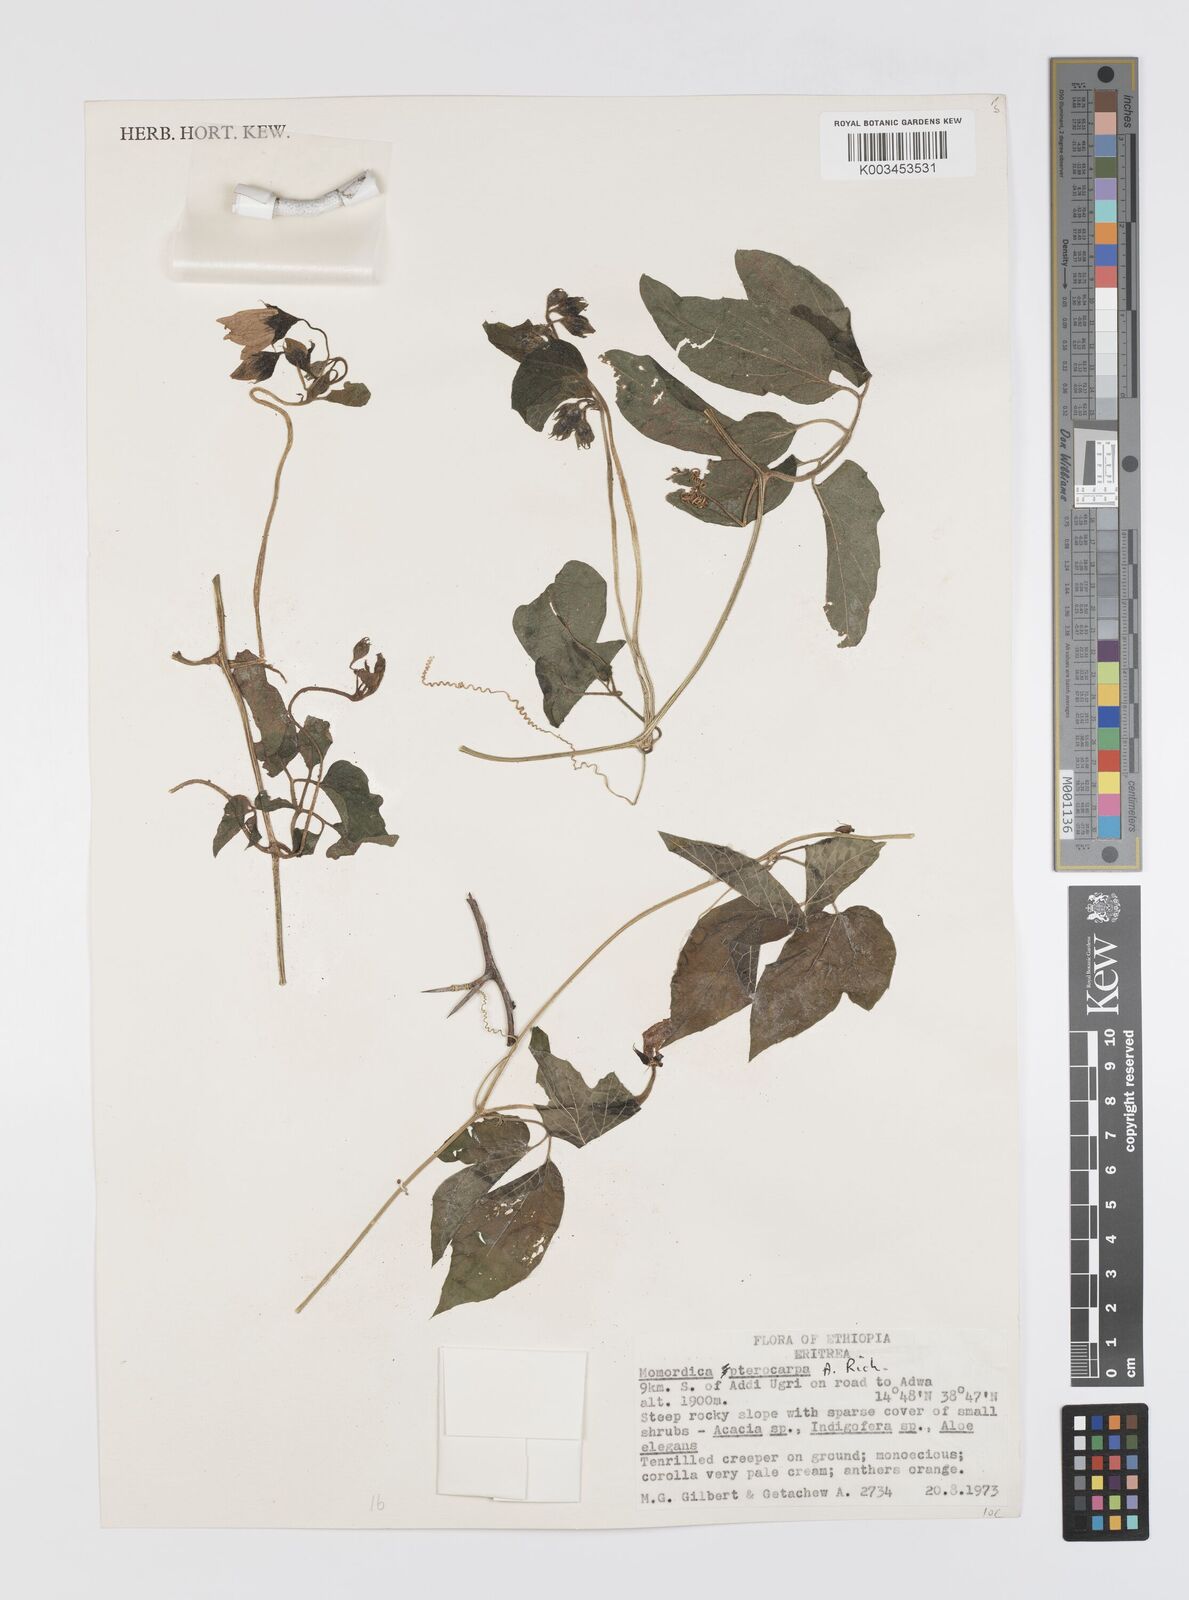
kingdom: Plantae
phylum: Tracheophyta
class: Magnoliopsida
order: Cucurbitales
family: Cucurbitaceae
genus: Momordica
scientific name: Momordica pterocarpa
